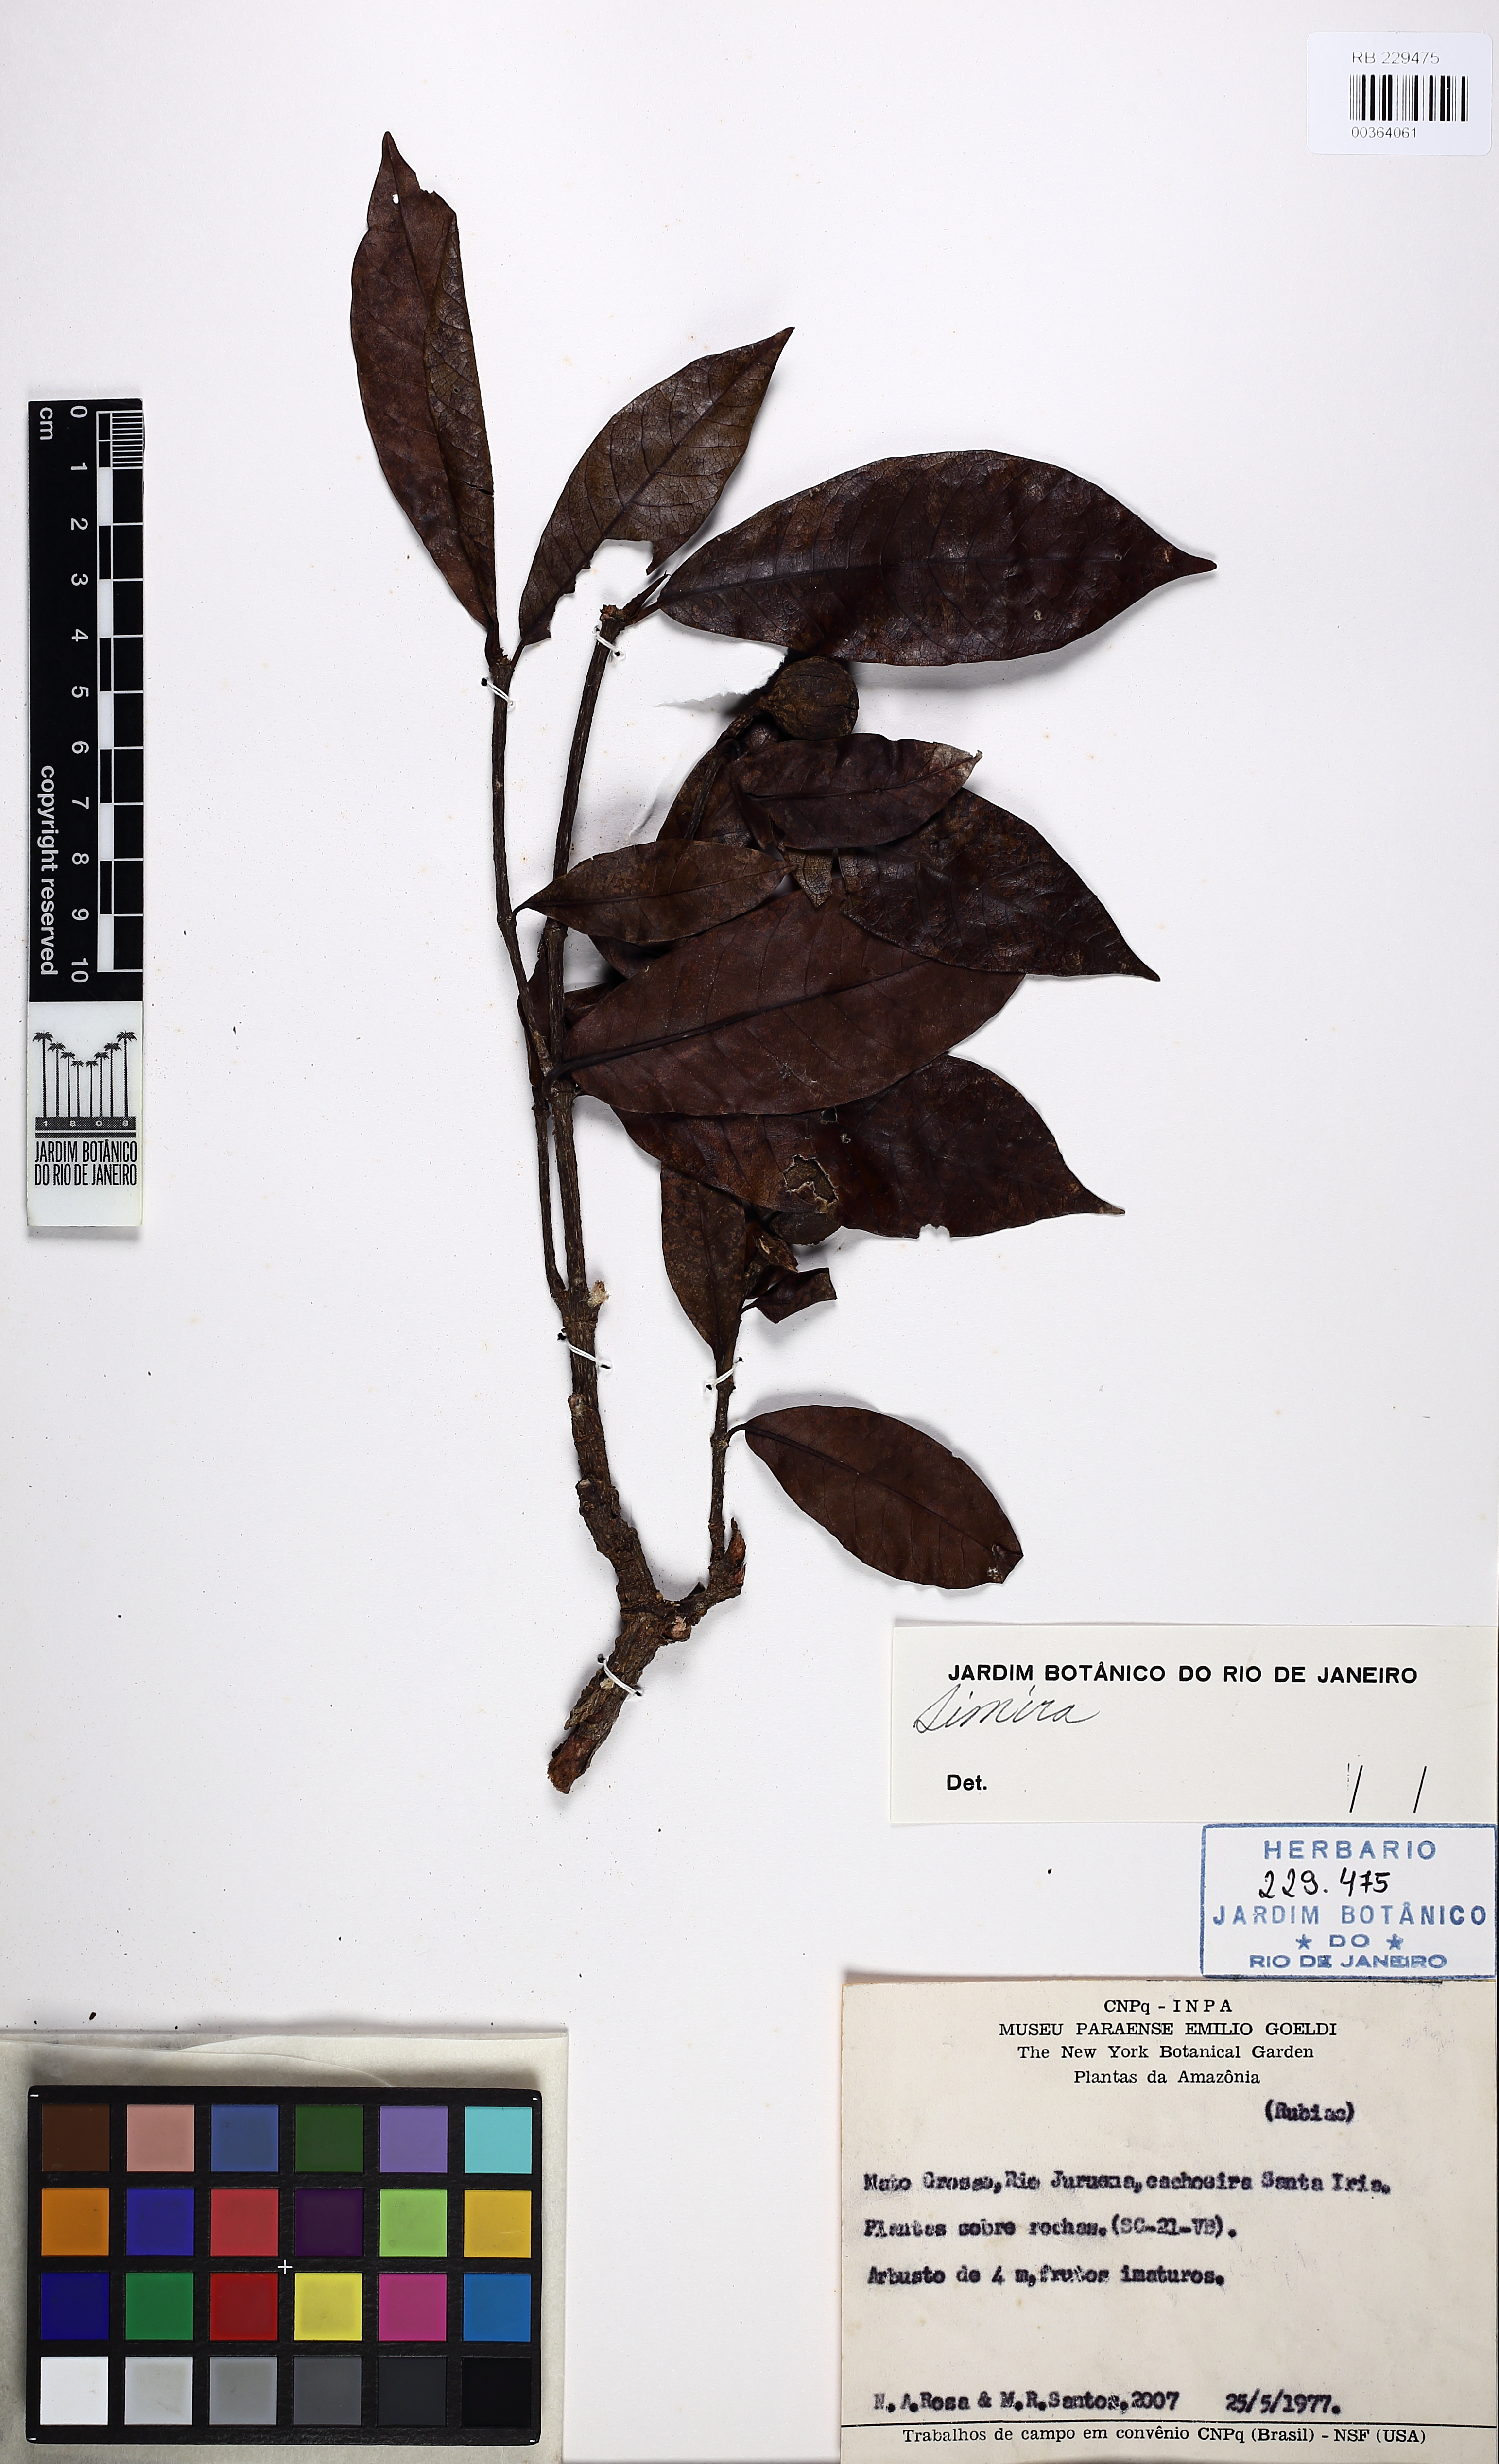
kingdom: Plantae
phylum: Tracheophyta
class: Magnoliopsida
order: Gentianales
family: Rubiaceae
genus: Simira
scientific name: Simira
